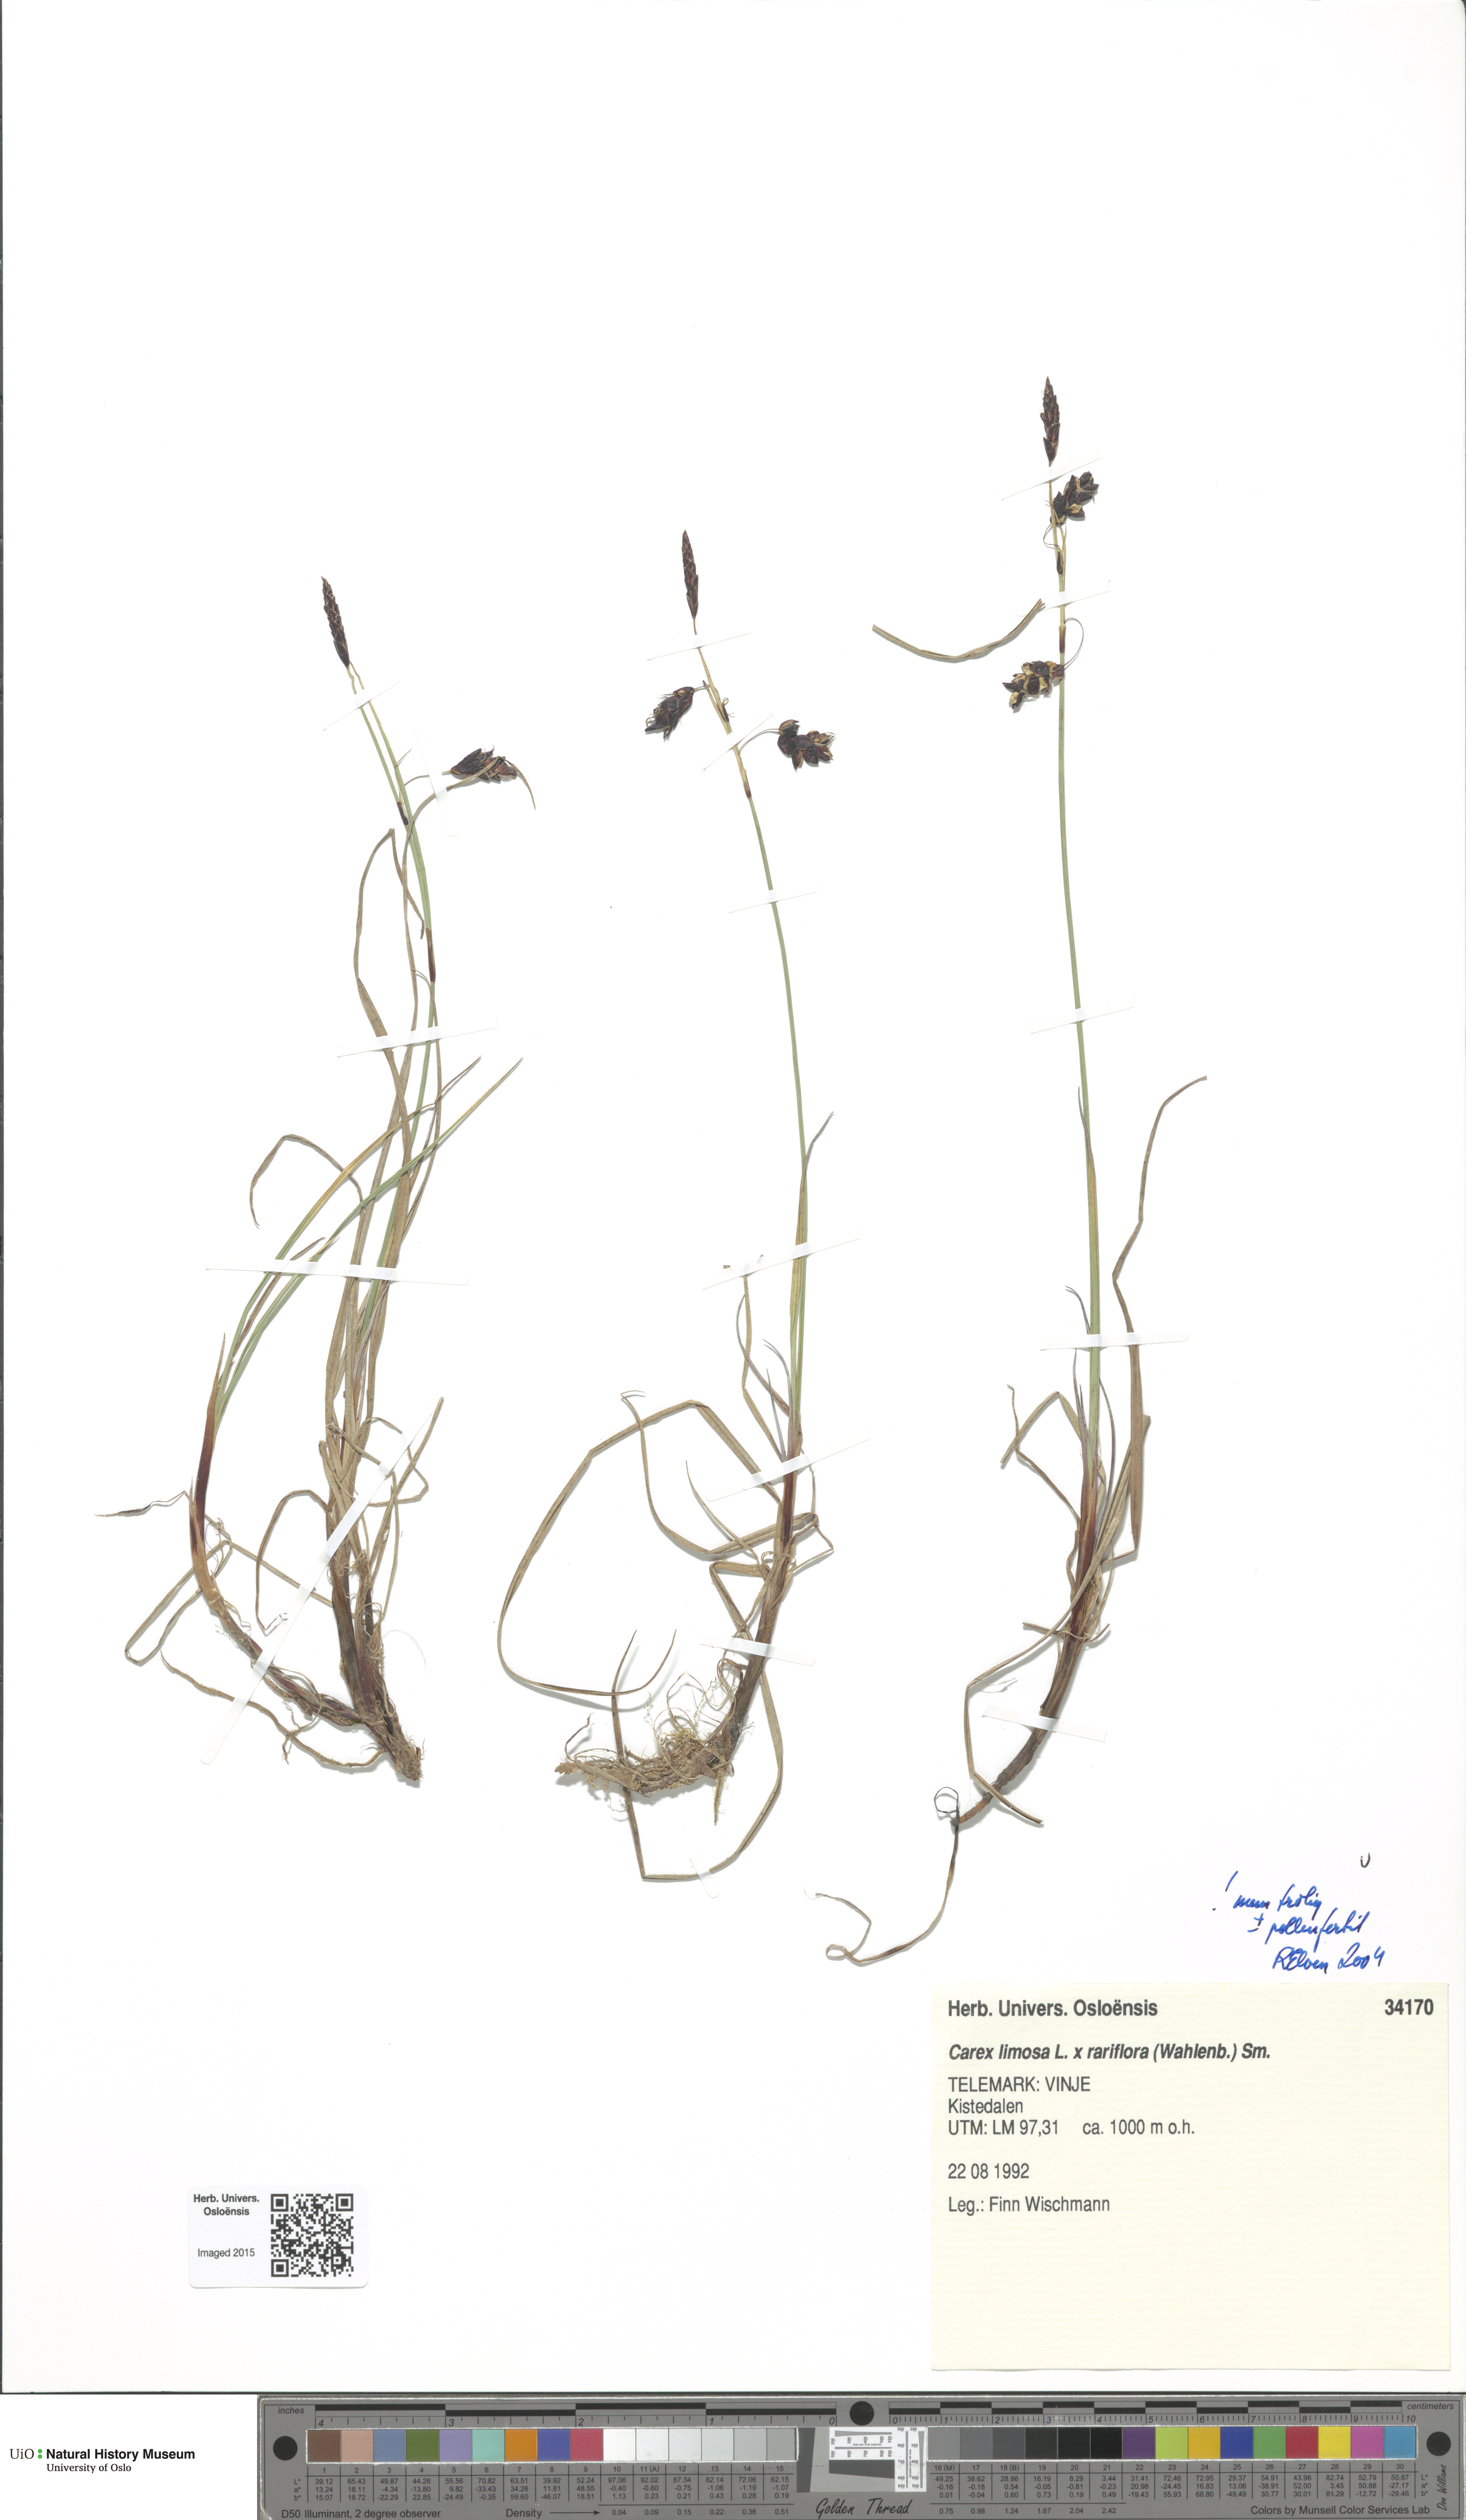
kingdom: Plantae
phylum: Tracheophyta
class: Liliopsida
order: Poales
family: Cyperaceae
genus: Carex
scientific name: Carex
